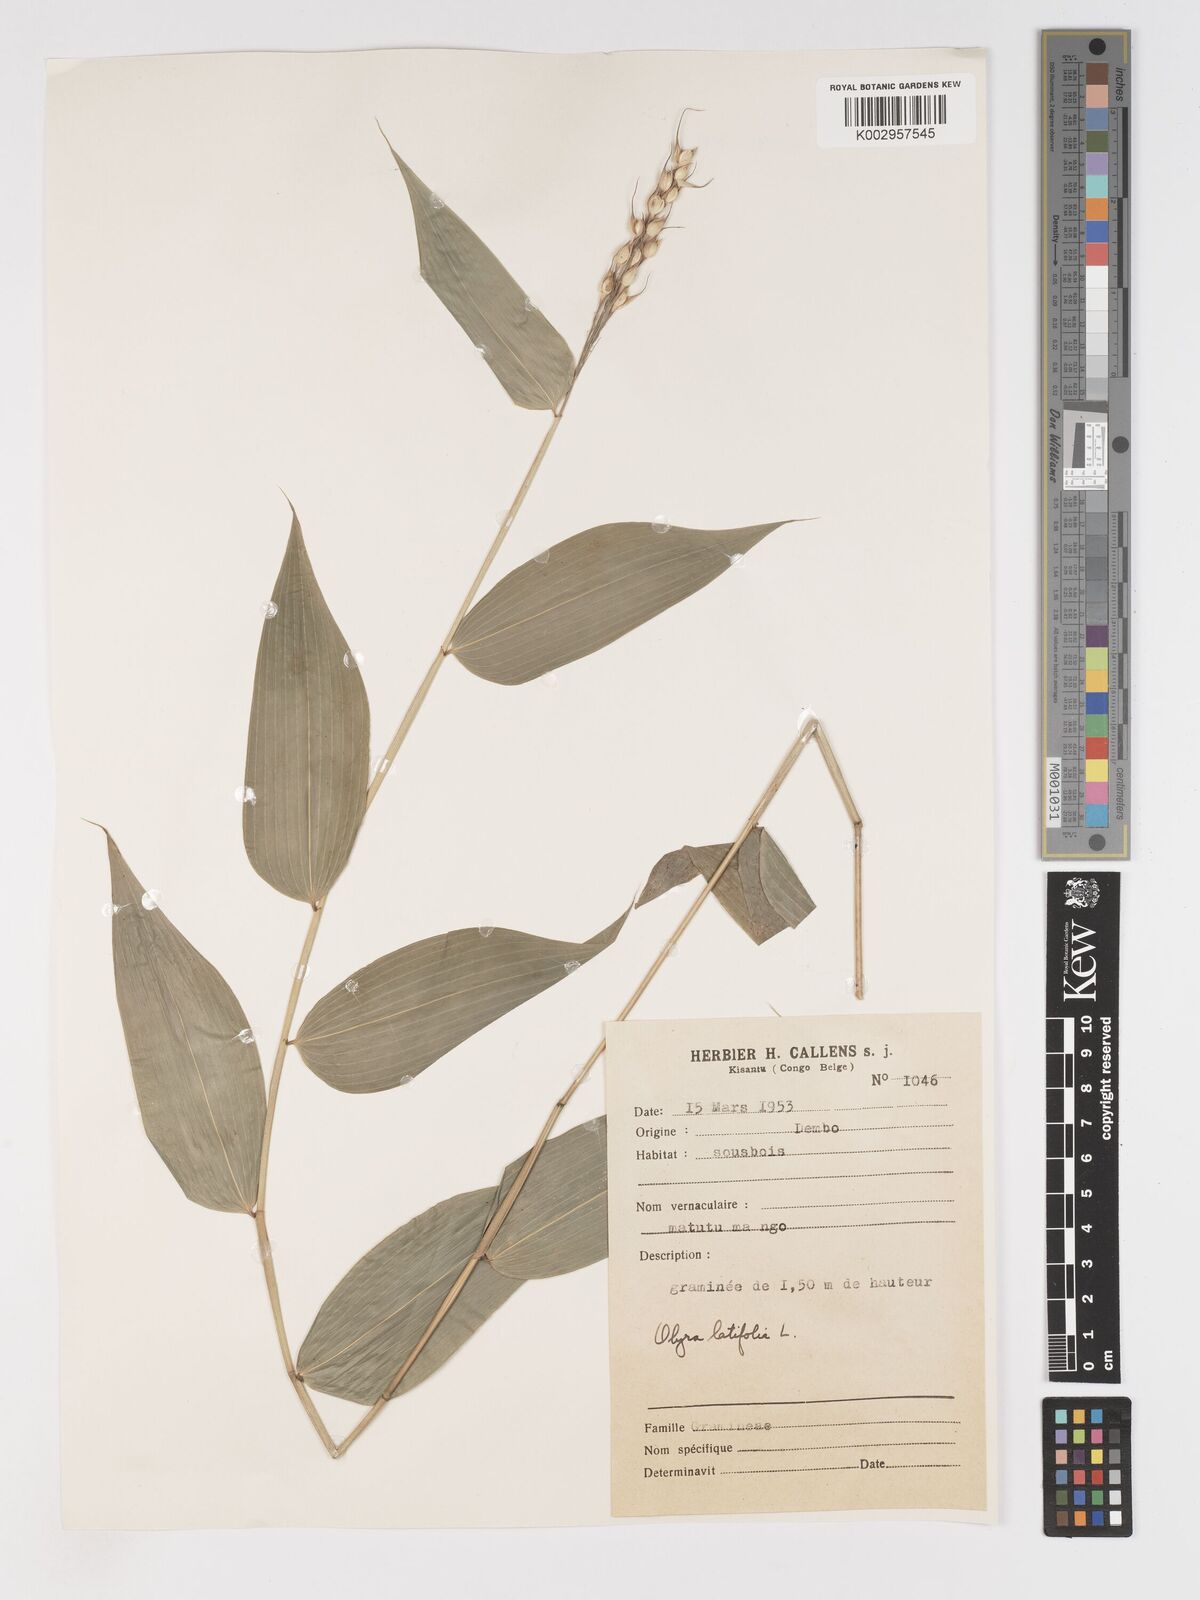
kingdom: Plantae
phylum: Tracheophyta
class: Liliopsida
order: Poales
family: Poaceae
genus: Olyra
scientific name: Olyra latifolia
